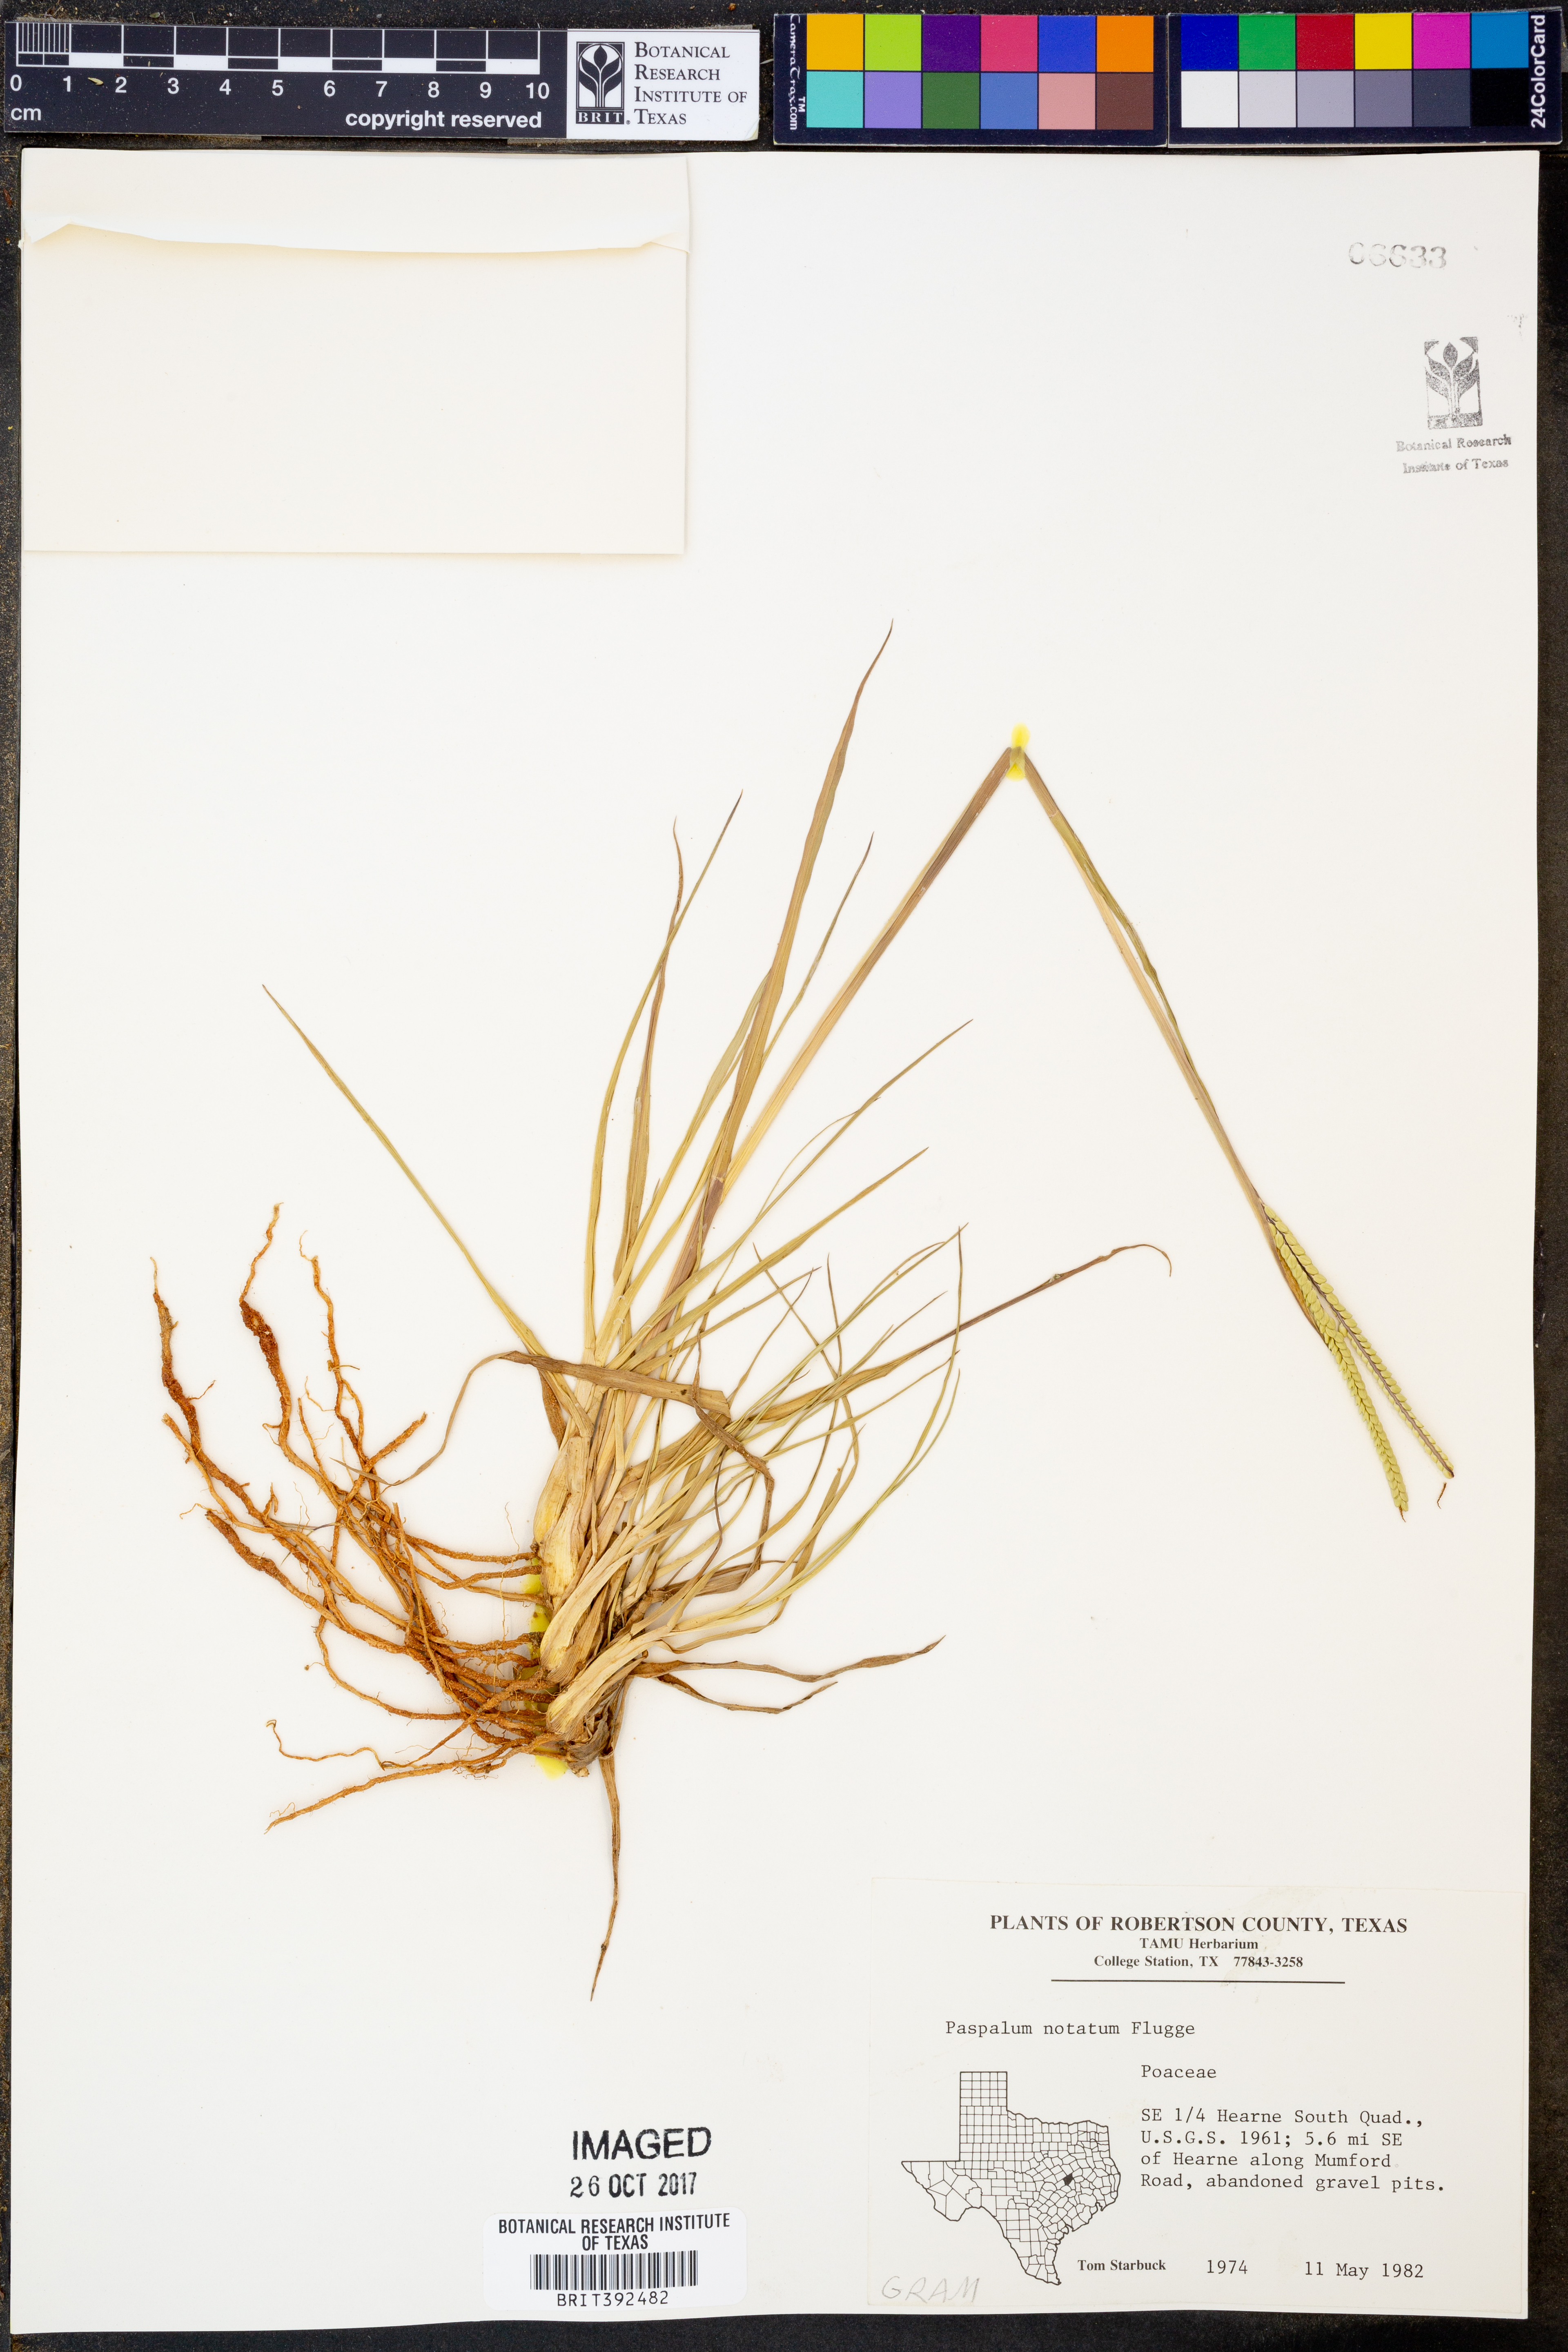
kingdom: Plantae
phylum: Tracheophyta
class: Liliopsida
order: Poales
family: Poaceae
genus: Paspalum
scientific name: Paspalum notatum
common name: Bahiagrass
